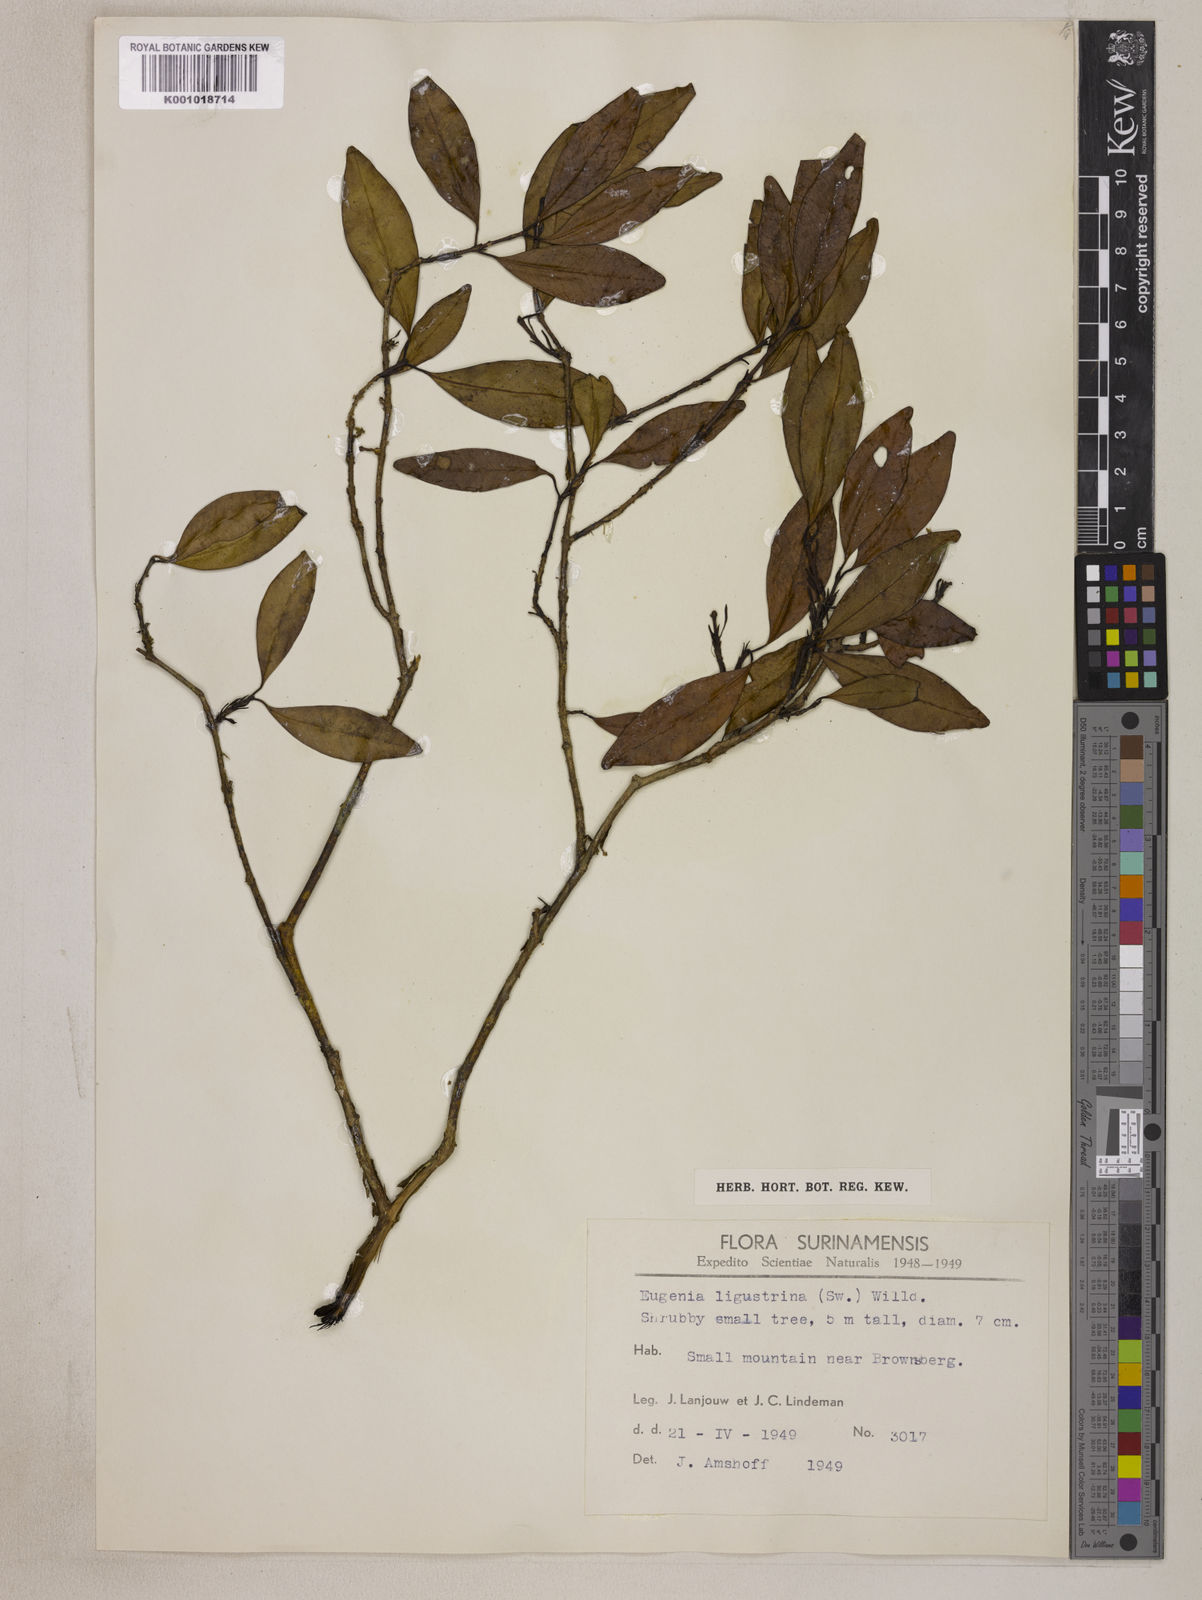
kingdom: Plantae
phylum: Tracheophyta
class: Magnoliopsida
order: Myrtales
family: Myrtaceae
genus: Eugenia
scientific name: Eugenia ligustrina
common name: Privet stopper
